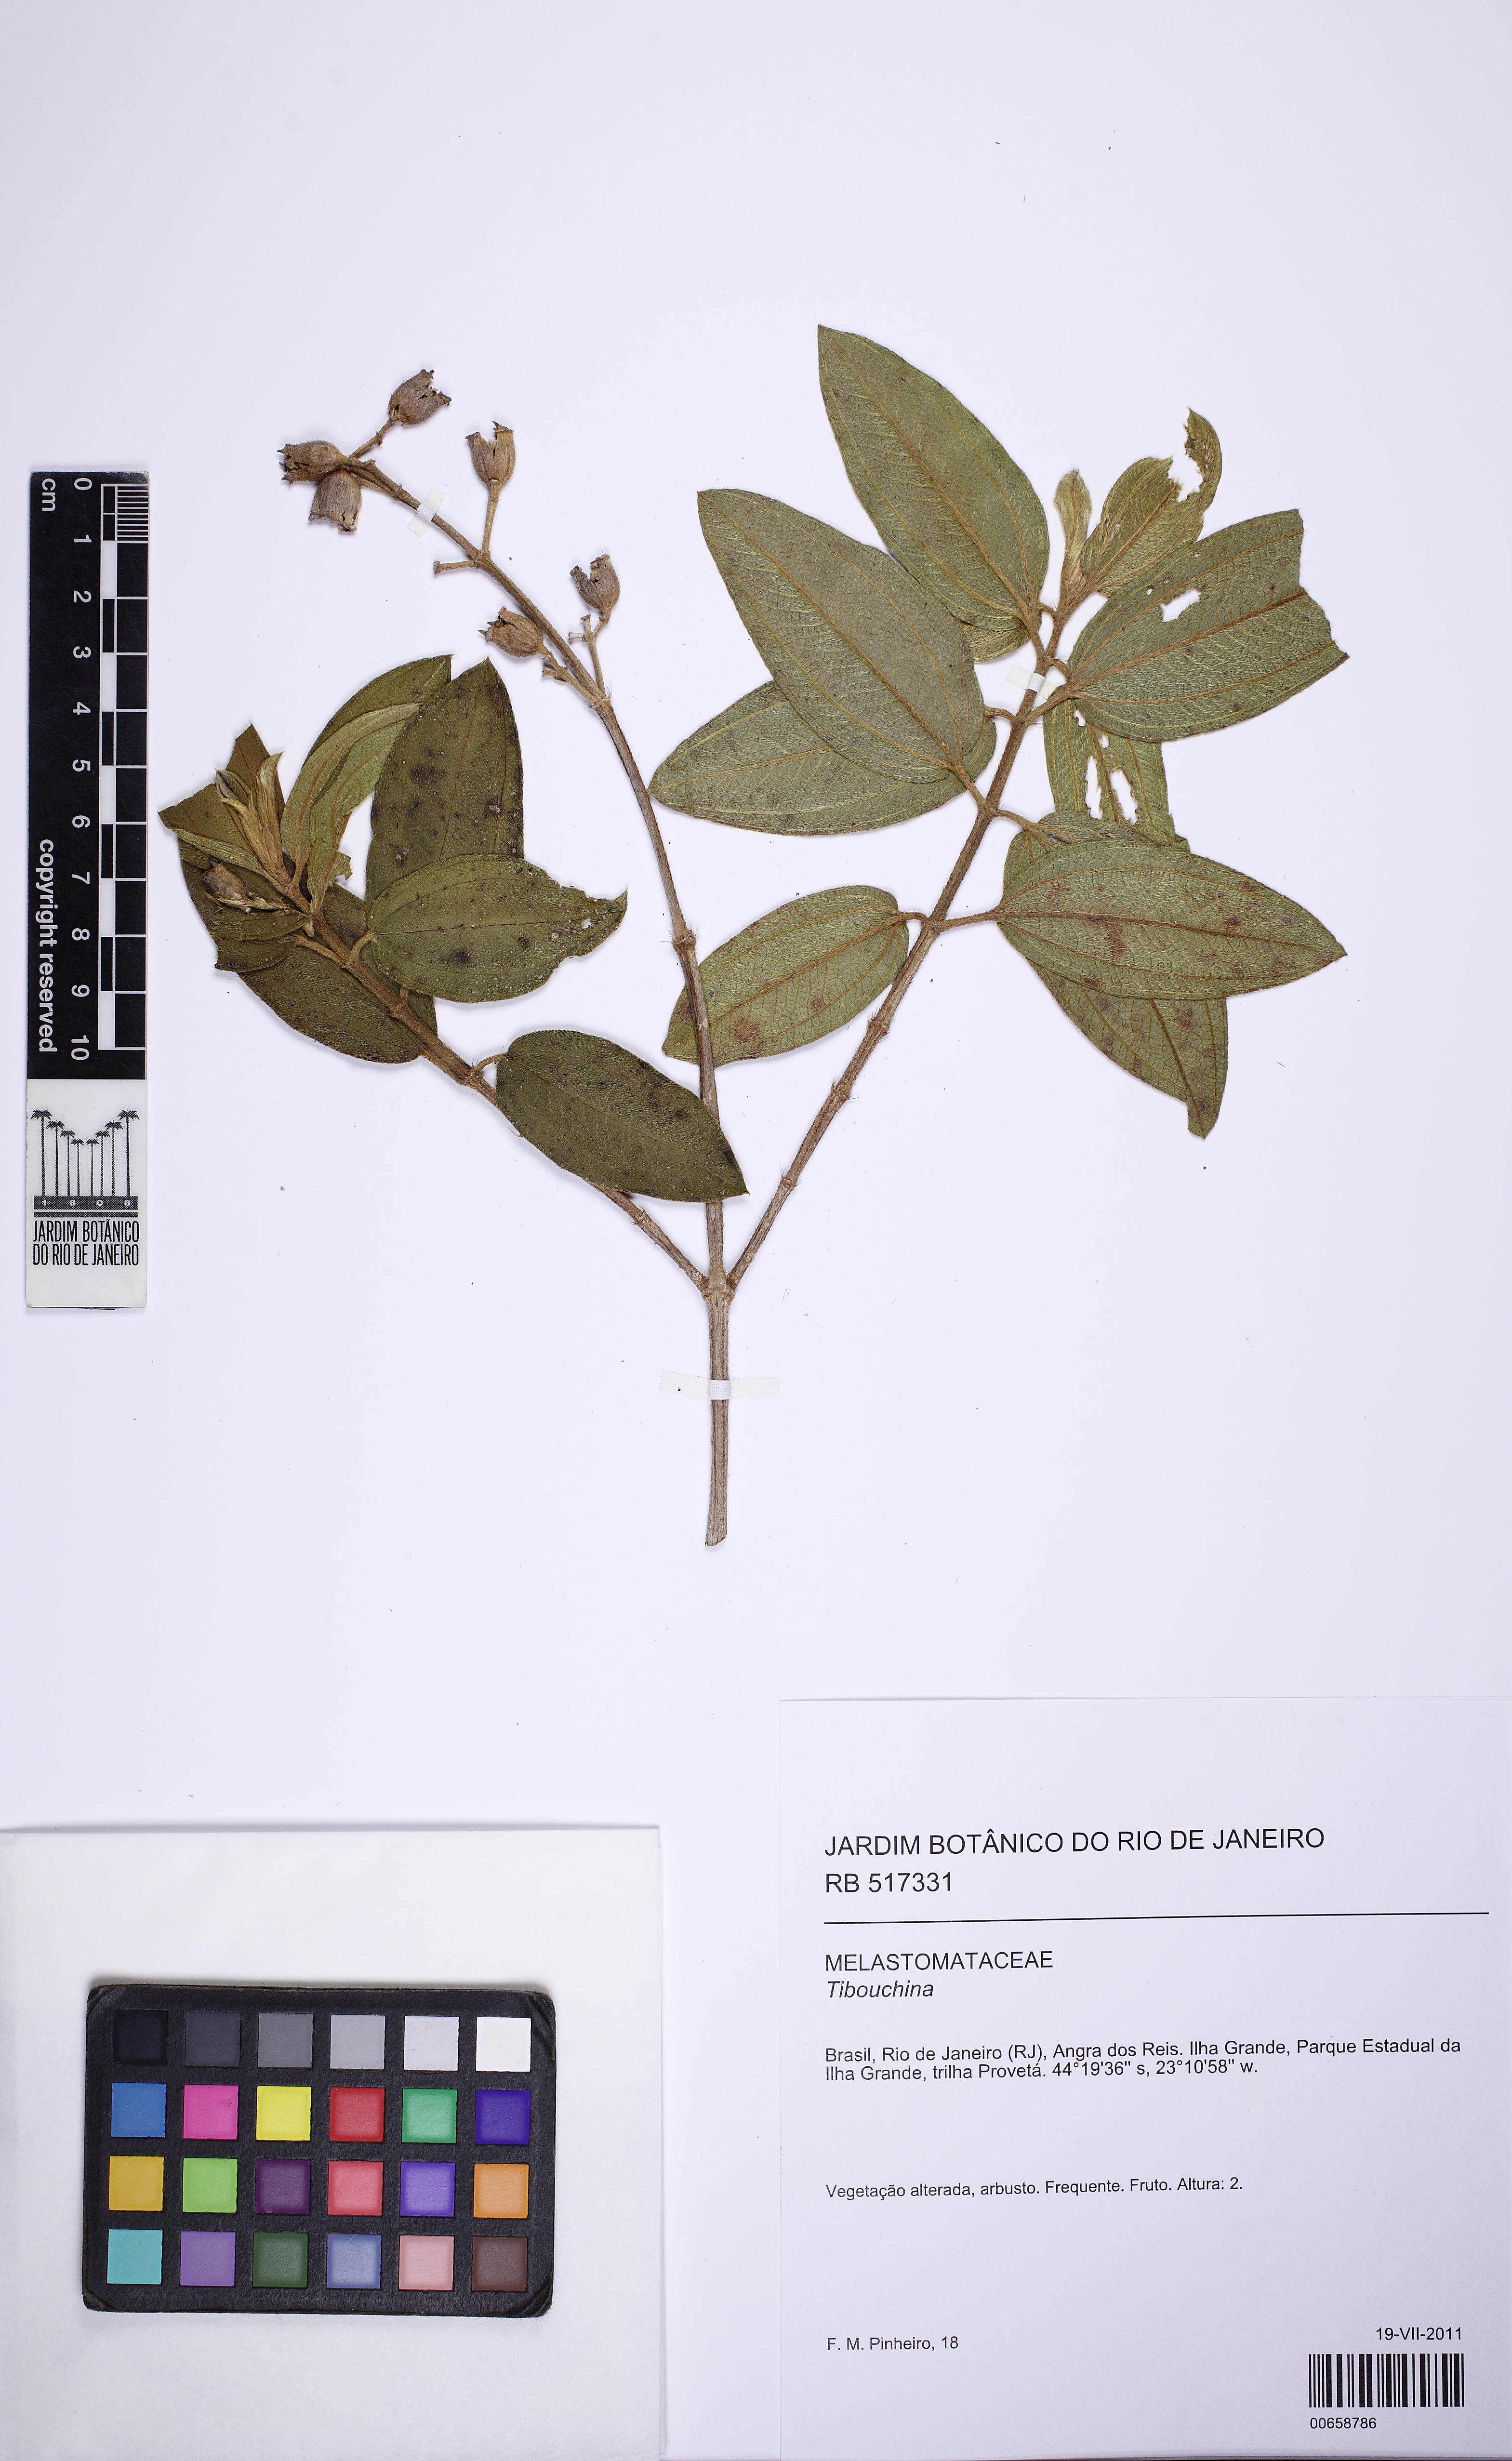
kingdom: Plantae
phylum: Tracheophyta
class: Magnoliopsida
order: Myrtales
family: Melastomataceae
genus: Pleroma
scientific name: Pleroma gaudichaudianum
